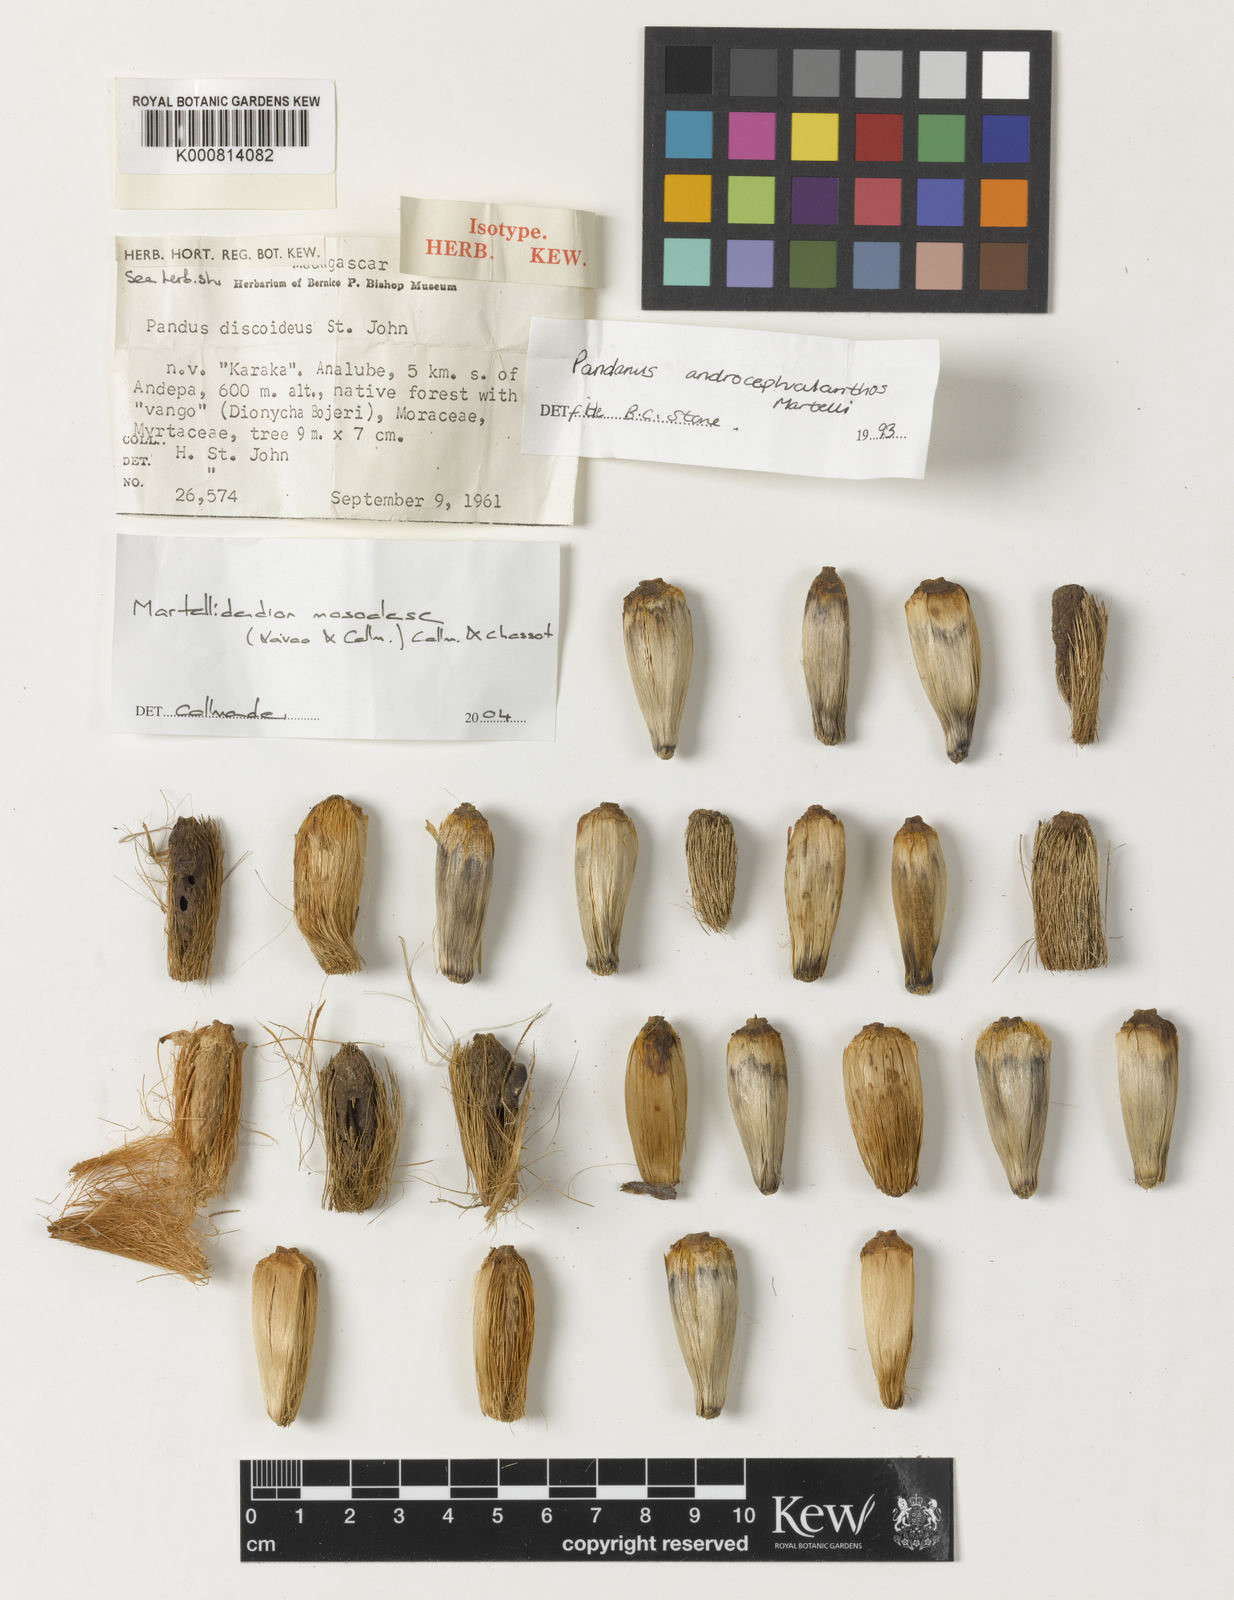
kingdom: Plantae
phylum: Tracheophyta
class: Liliopsida
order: Pandanales
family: Pandanaceae
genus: Martellidendron
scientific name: Martellidendron karaka
